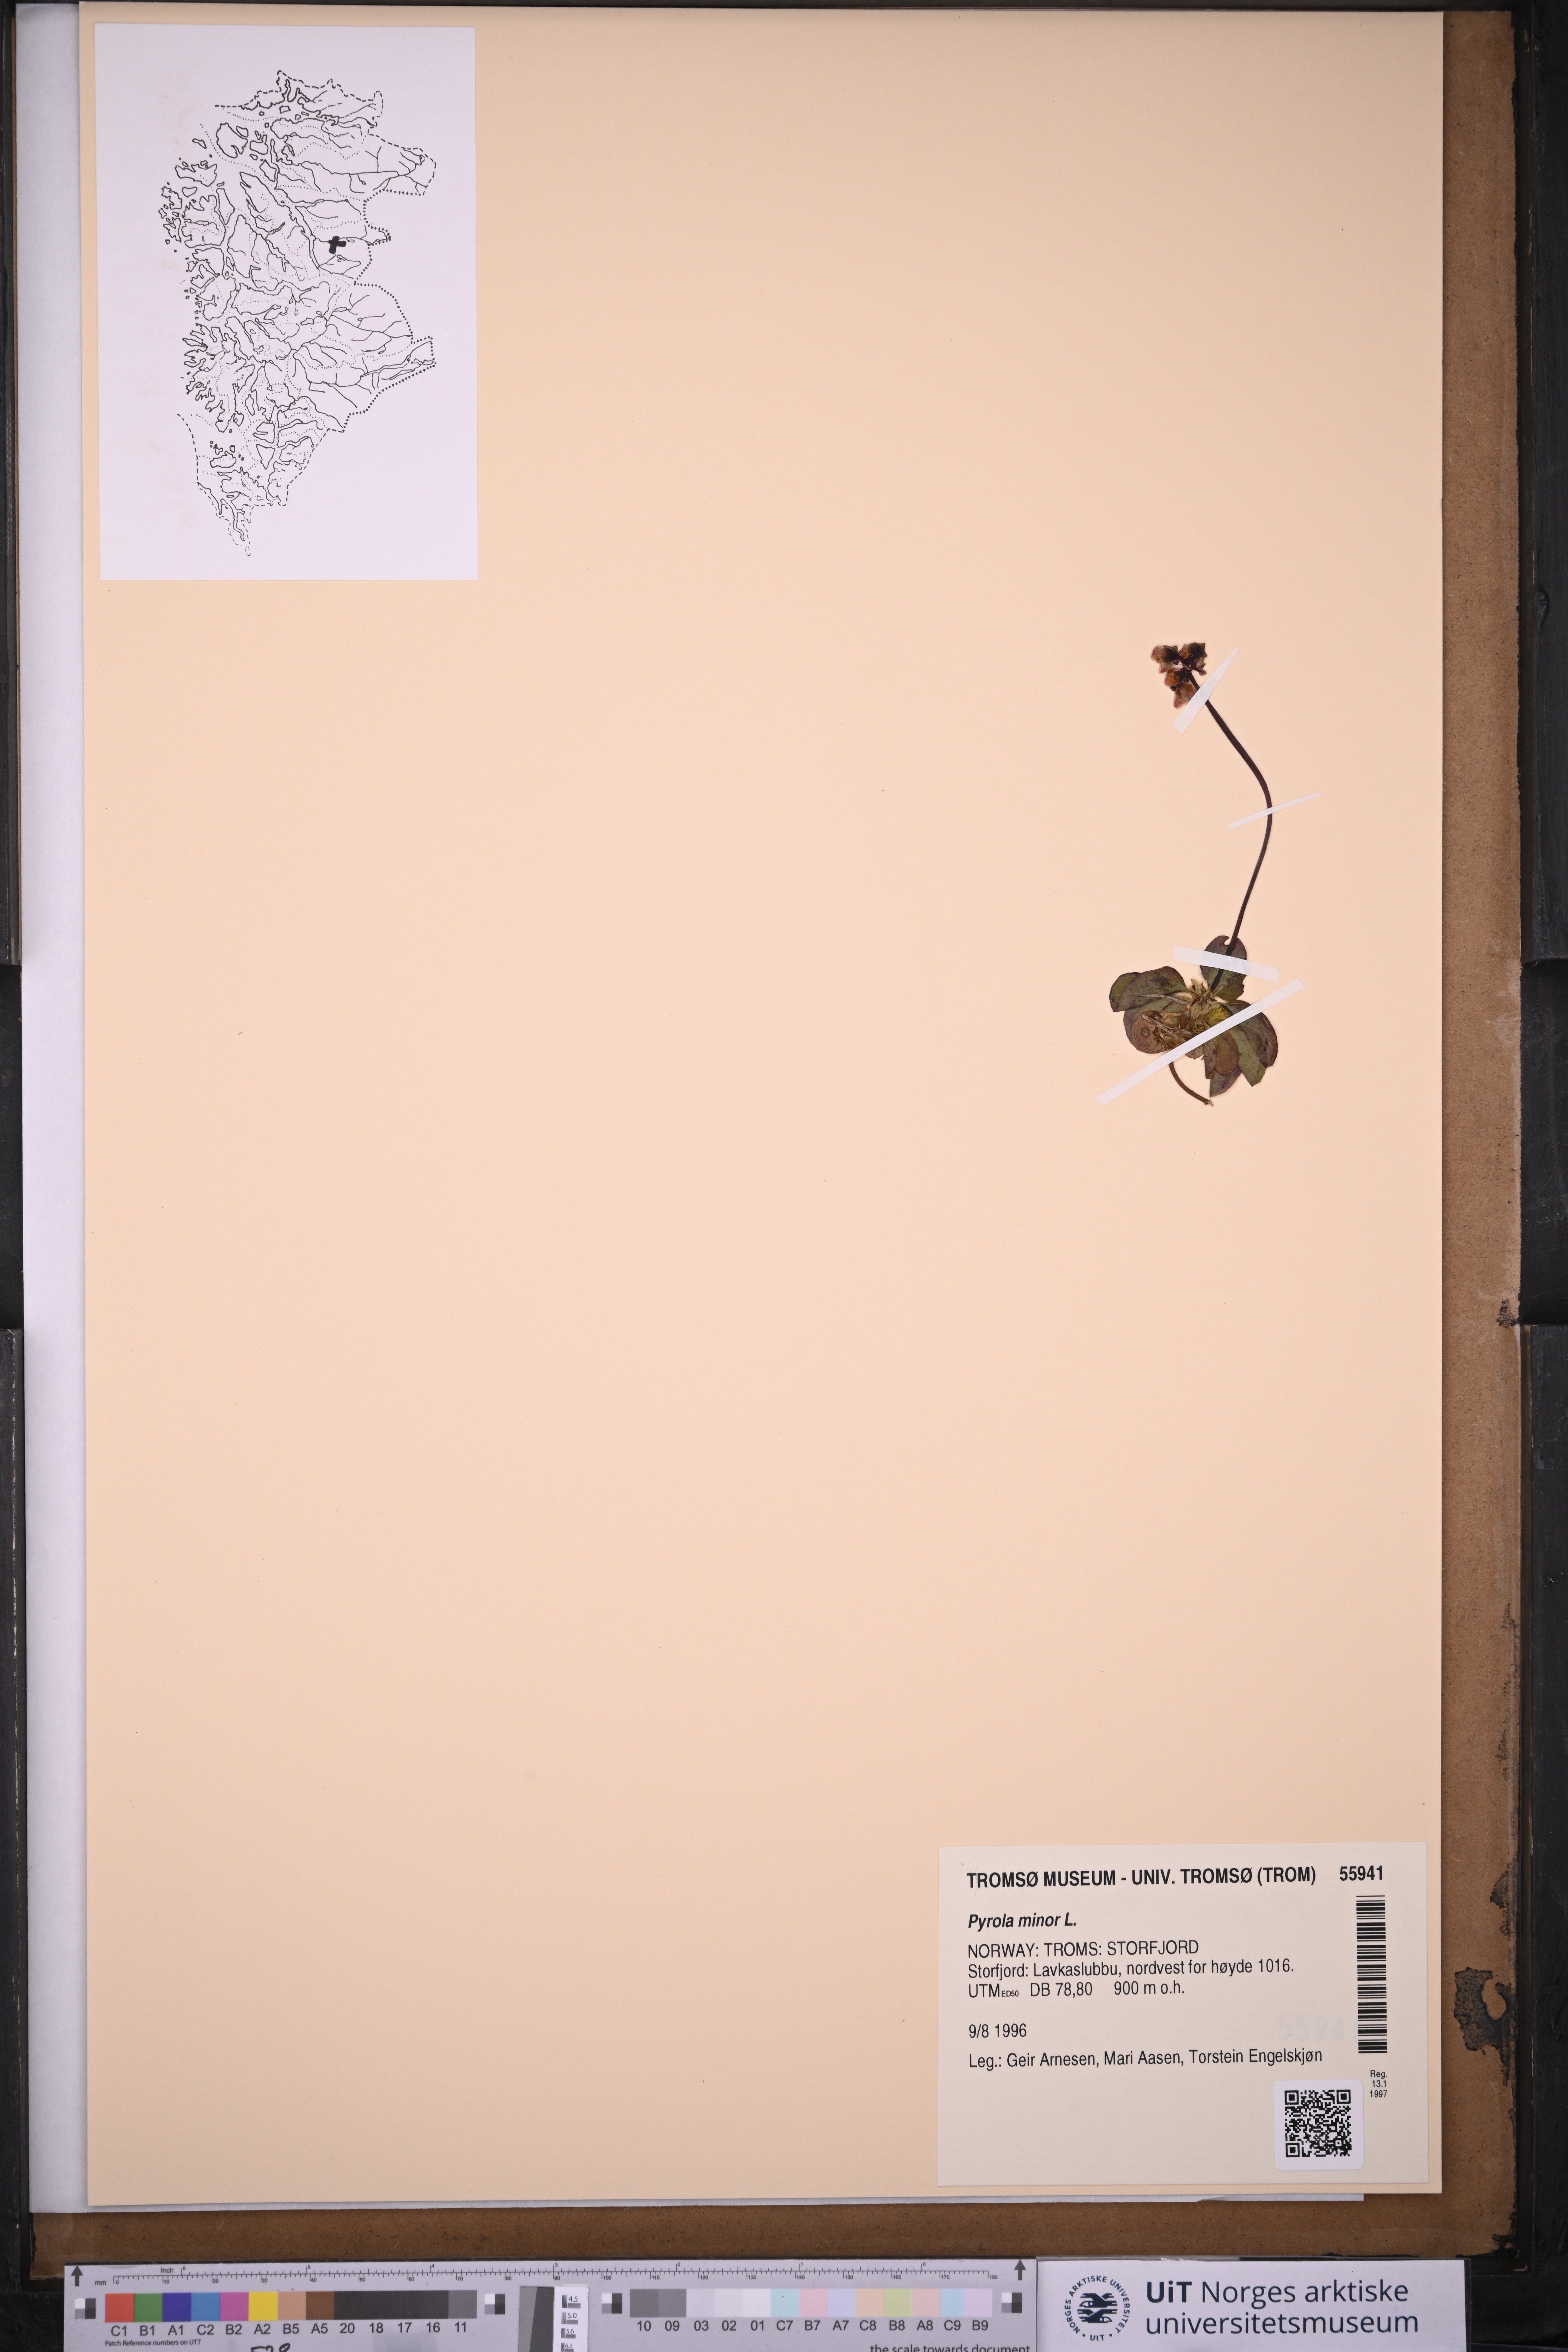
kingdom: Plantae
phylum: Tracheophyta
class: Magnoliopsida
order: Ericales
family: Ericaceae
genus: Pyrola
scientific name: Pyrola minor
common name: Common wintergreen
